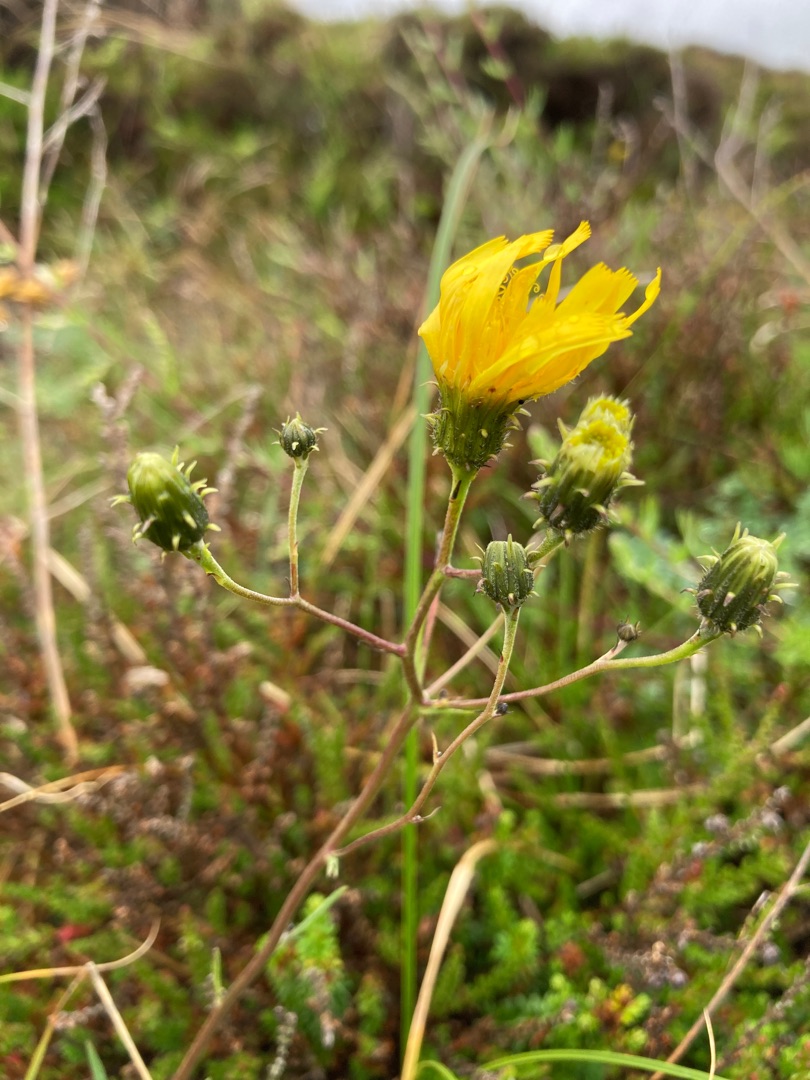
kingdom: Plantae
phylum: Tracheophyta
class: Magnoliopsida
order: Asterales
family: Asteraceae
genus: Hieracium
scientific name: Hieracium umbellatum
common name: Smalbladet høgeurt
